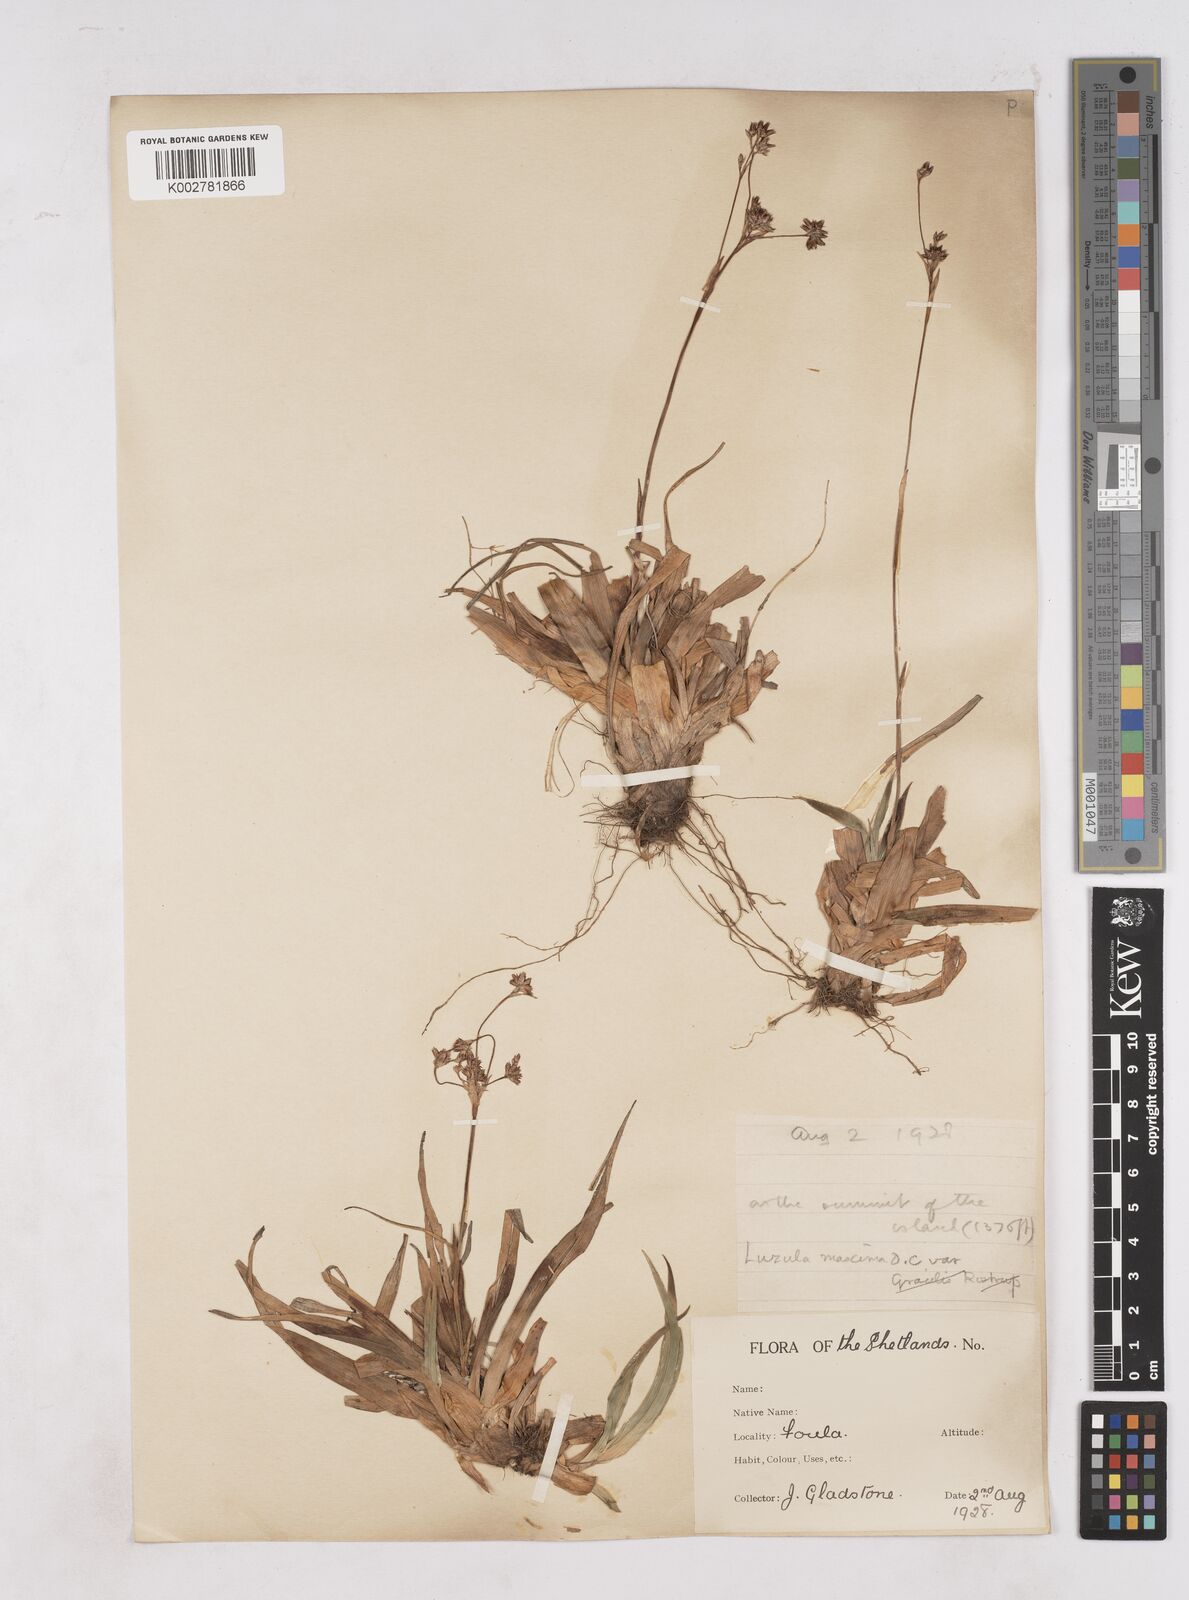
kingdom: Plantae
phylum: Tracheophyta
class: Liliopsida
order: Poales
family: Juncaceae
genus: Luzula
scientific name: Luzula sylvatica
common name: Great wood-rush
